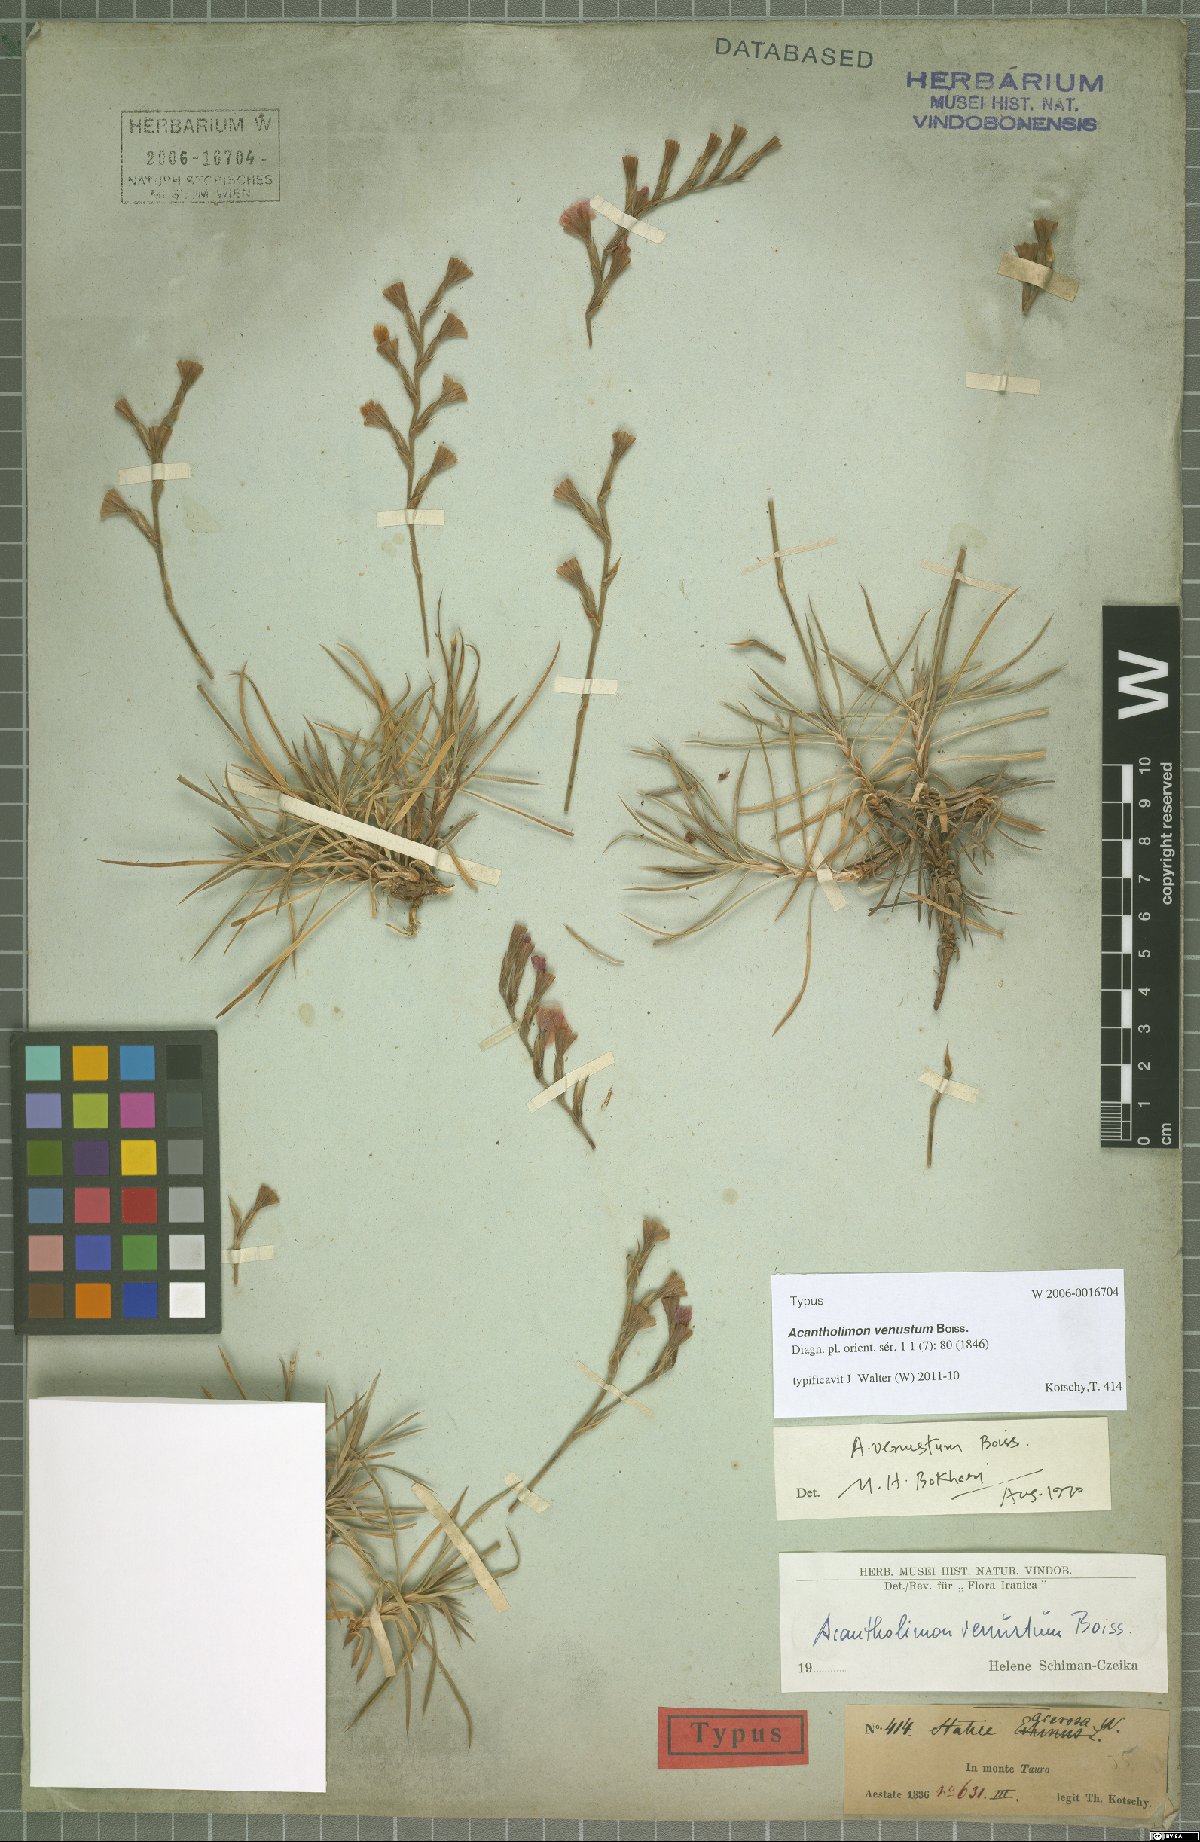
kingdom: Plantae
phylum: Tracheophyta
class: Magnoliopsida
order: Caryophyllales
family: Plumbaginaceae
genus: Acantholimon
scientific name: Acantholimon venustum
